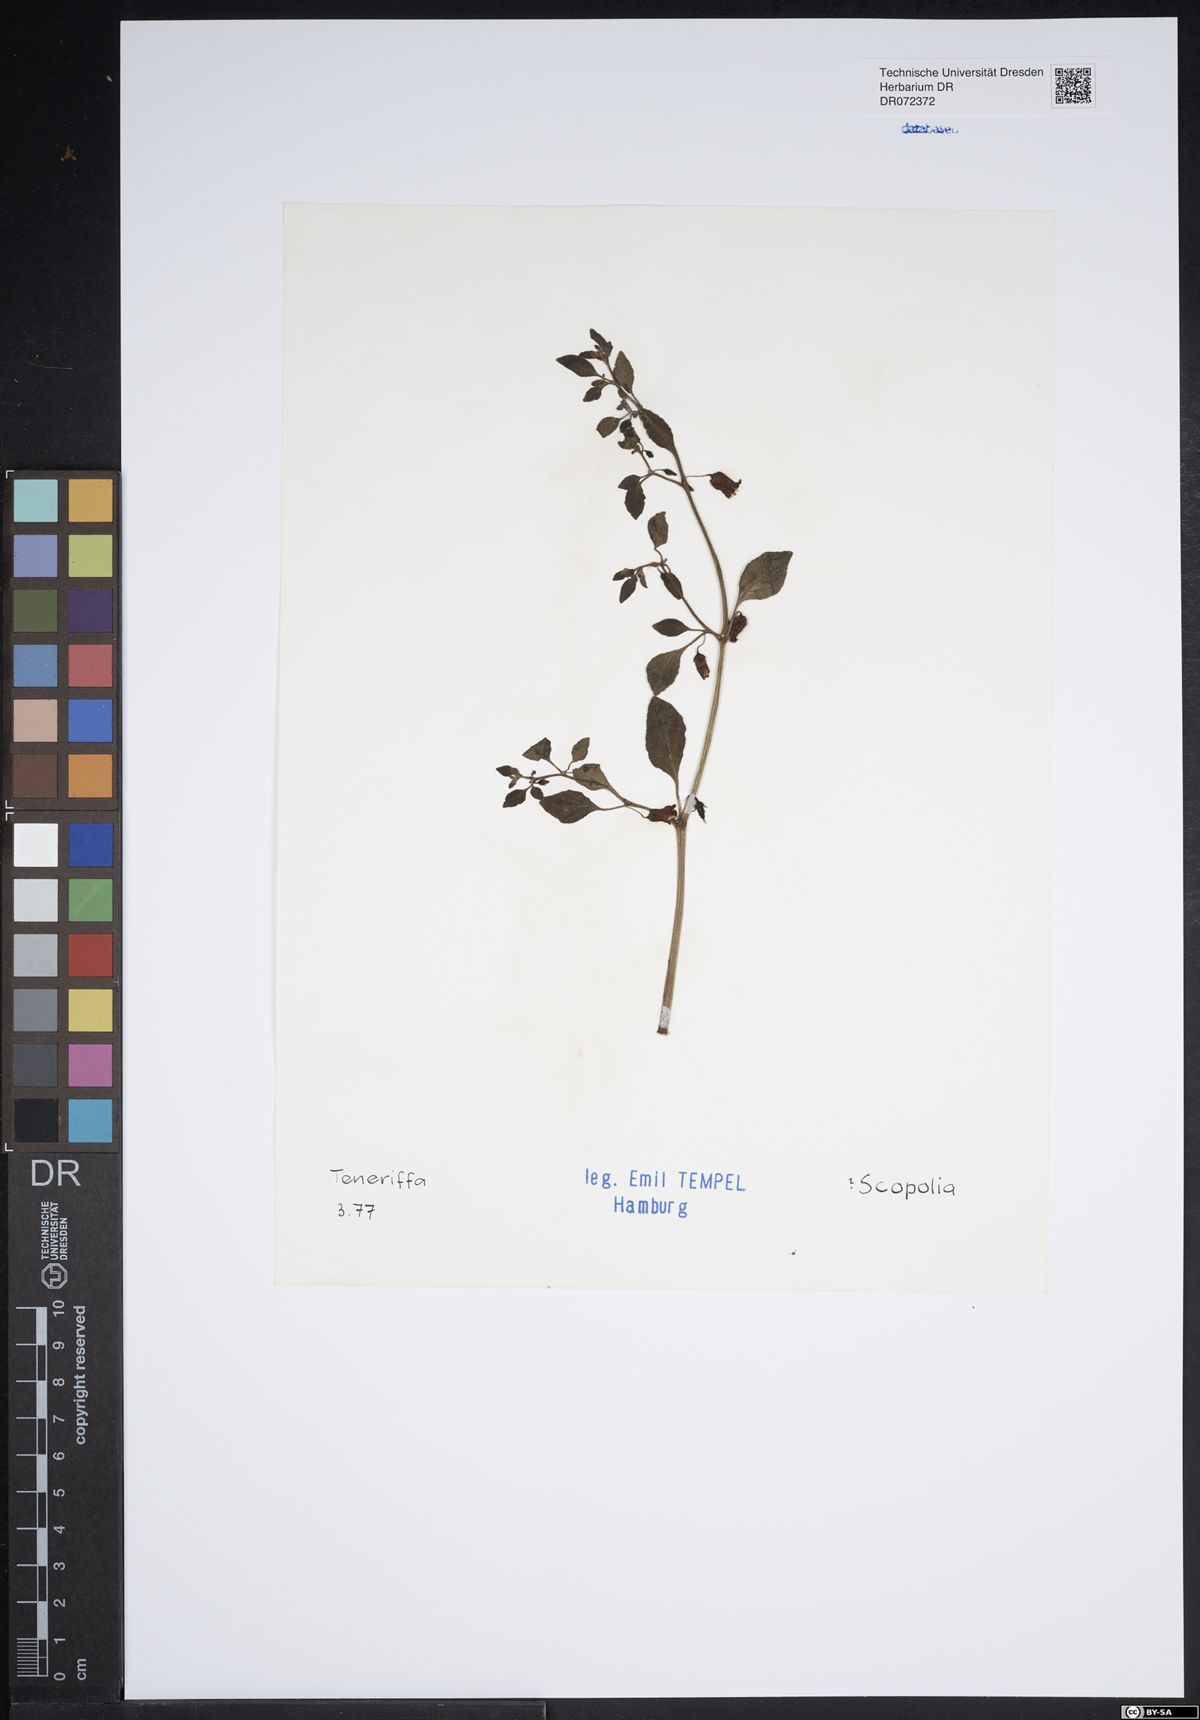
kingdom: Plantae
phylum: Tracheophyta
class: Magnoliopsida
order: Solanales
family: Solanaceae
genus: Scopolia
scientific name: Scopolia
